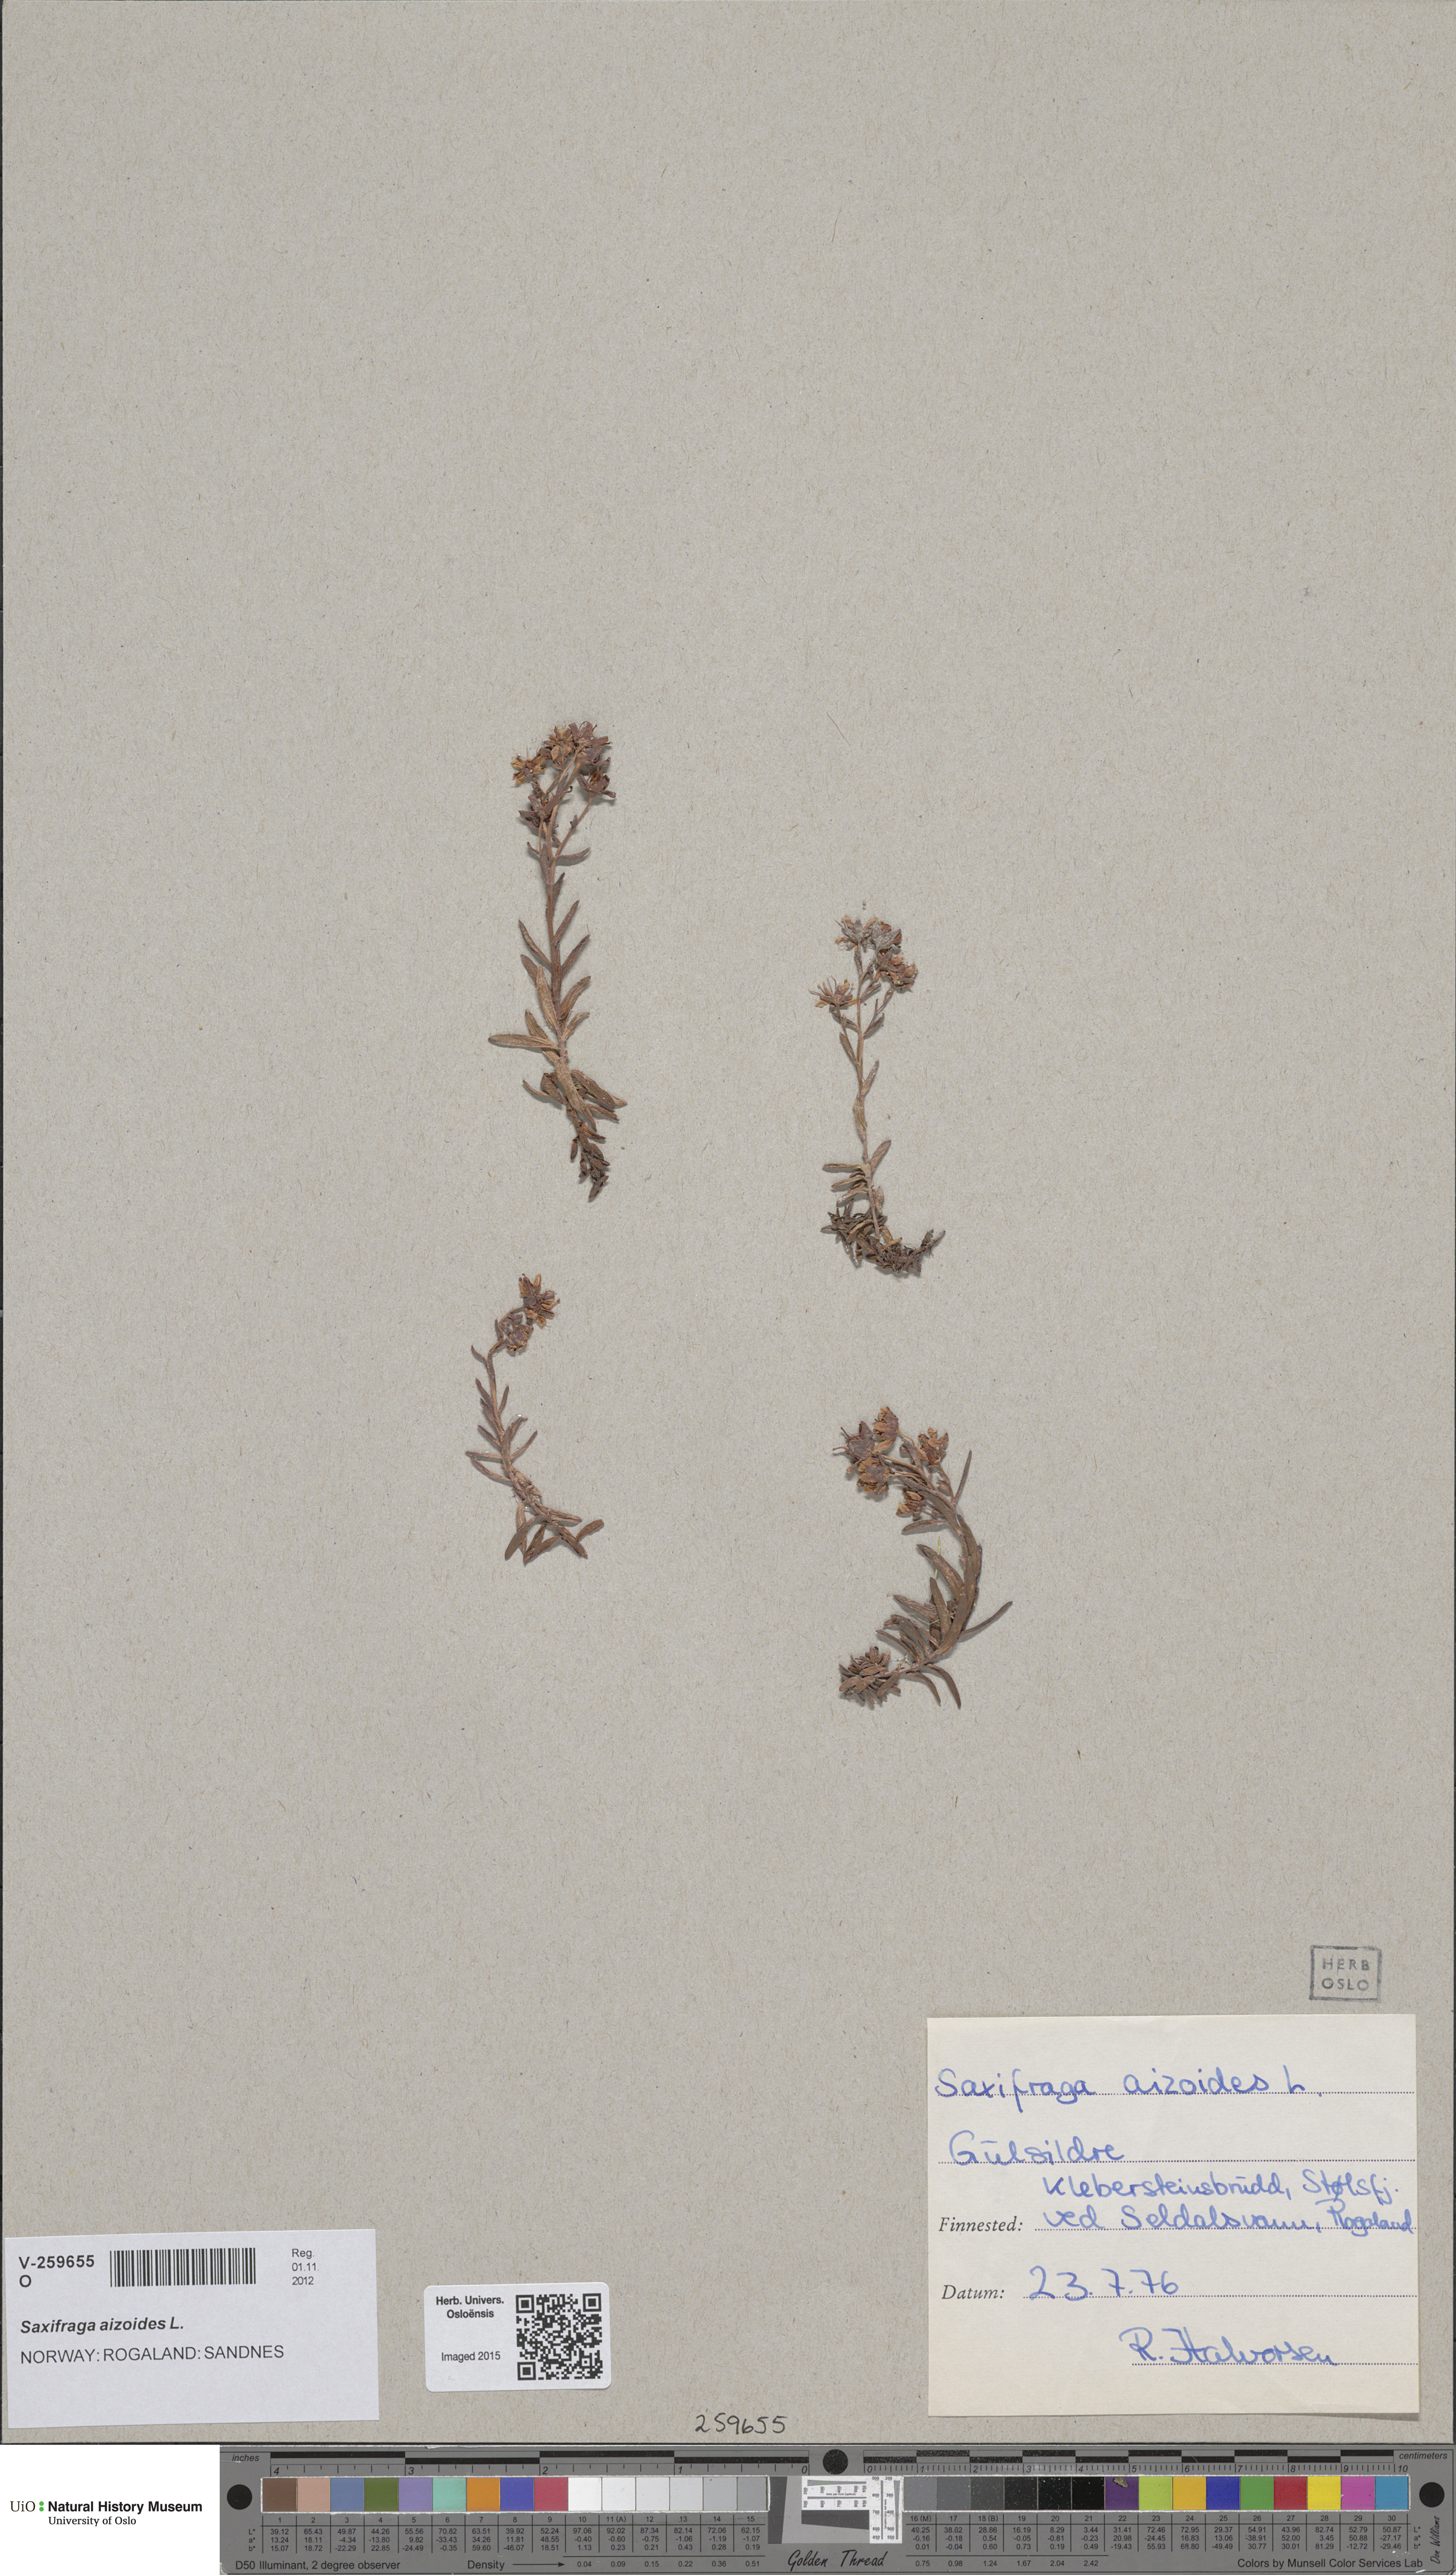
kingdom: Plantae
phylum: Tracheophyta
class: Magnoliopsida
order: Saxifragales
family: Saxifragaceae
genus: Saxifraga
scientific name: Saxifraga aizoides
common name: Yellow mountain saxifrage
